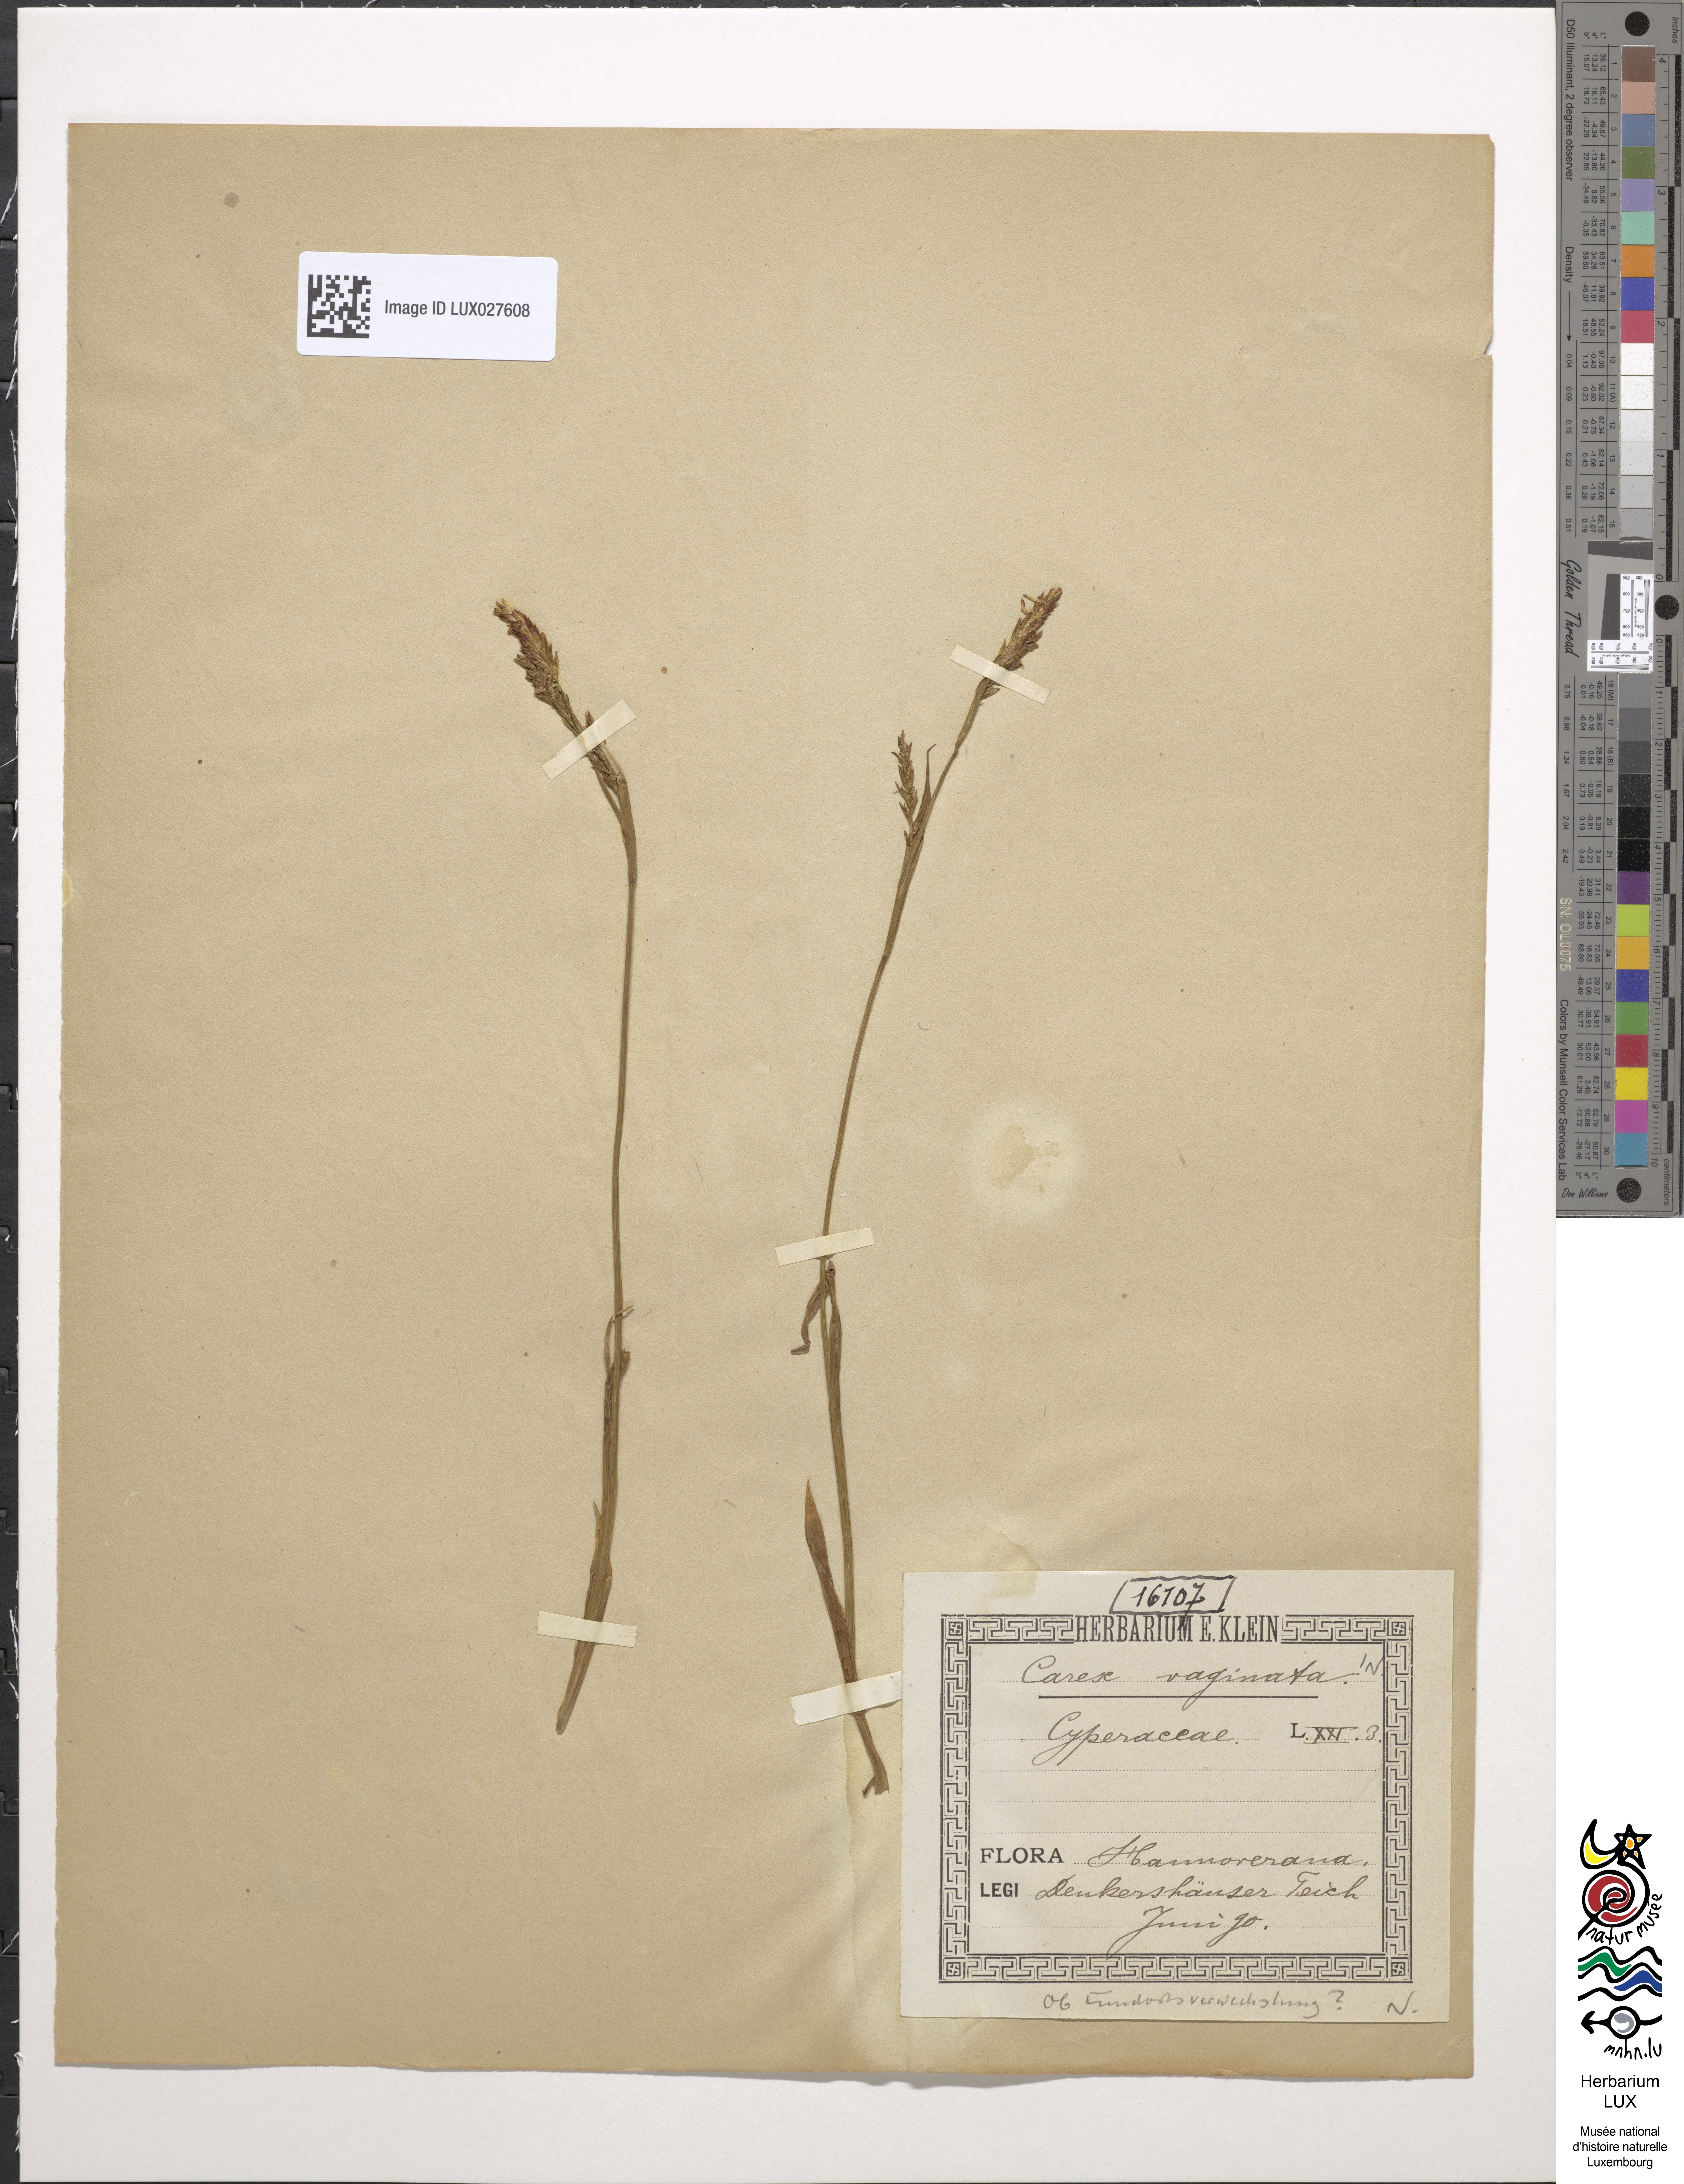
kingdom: Plantae
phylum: Tracheophyta
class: Liliopsida
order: Poales
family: Cyperaceae
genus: Carex
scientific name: Carex vaginata
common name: Sheathed sedge
